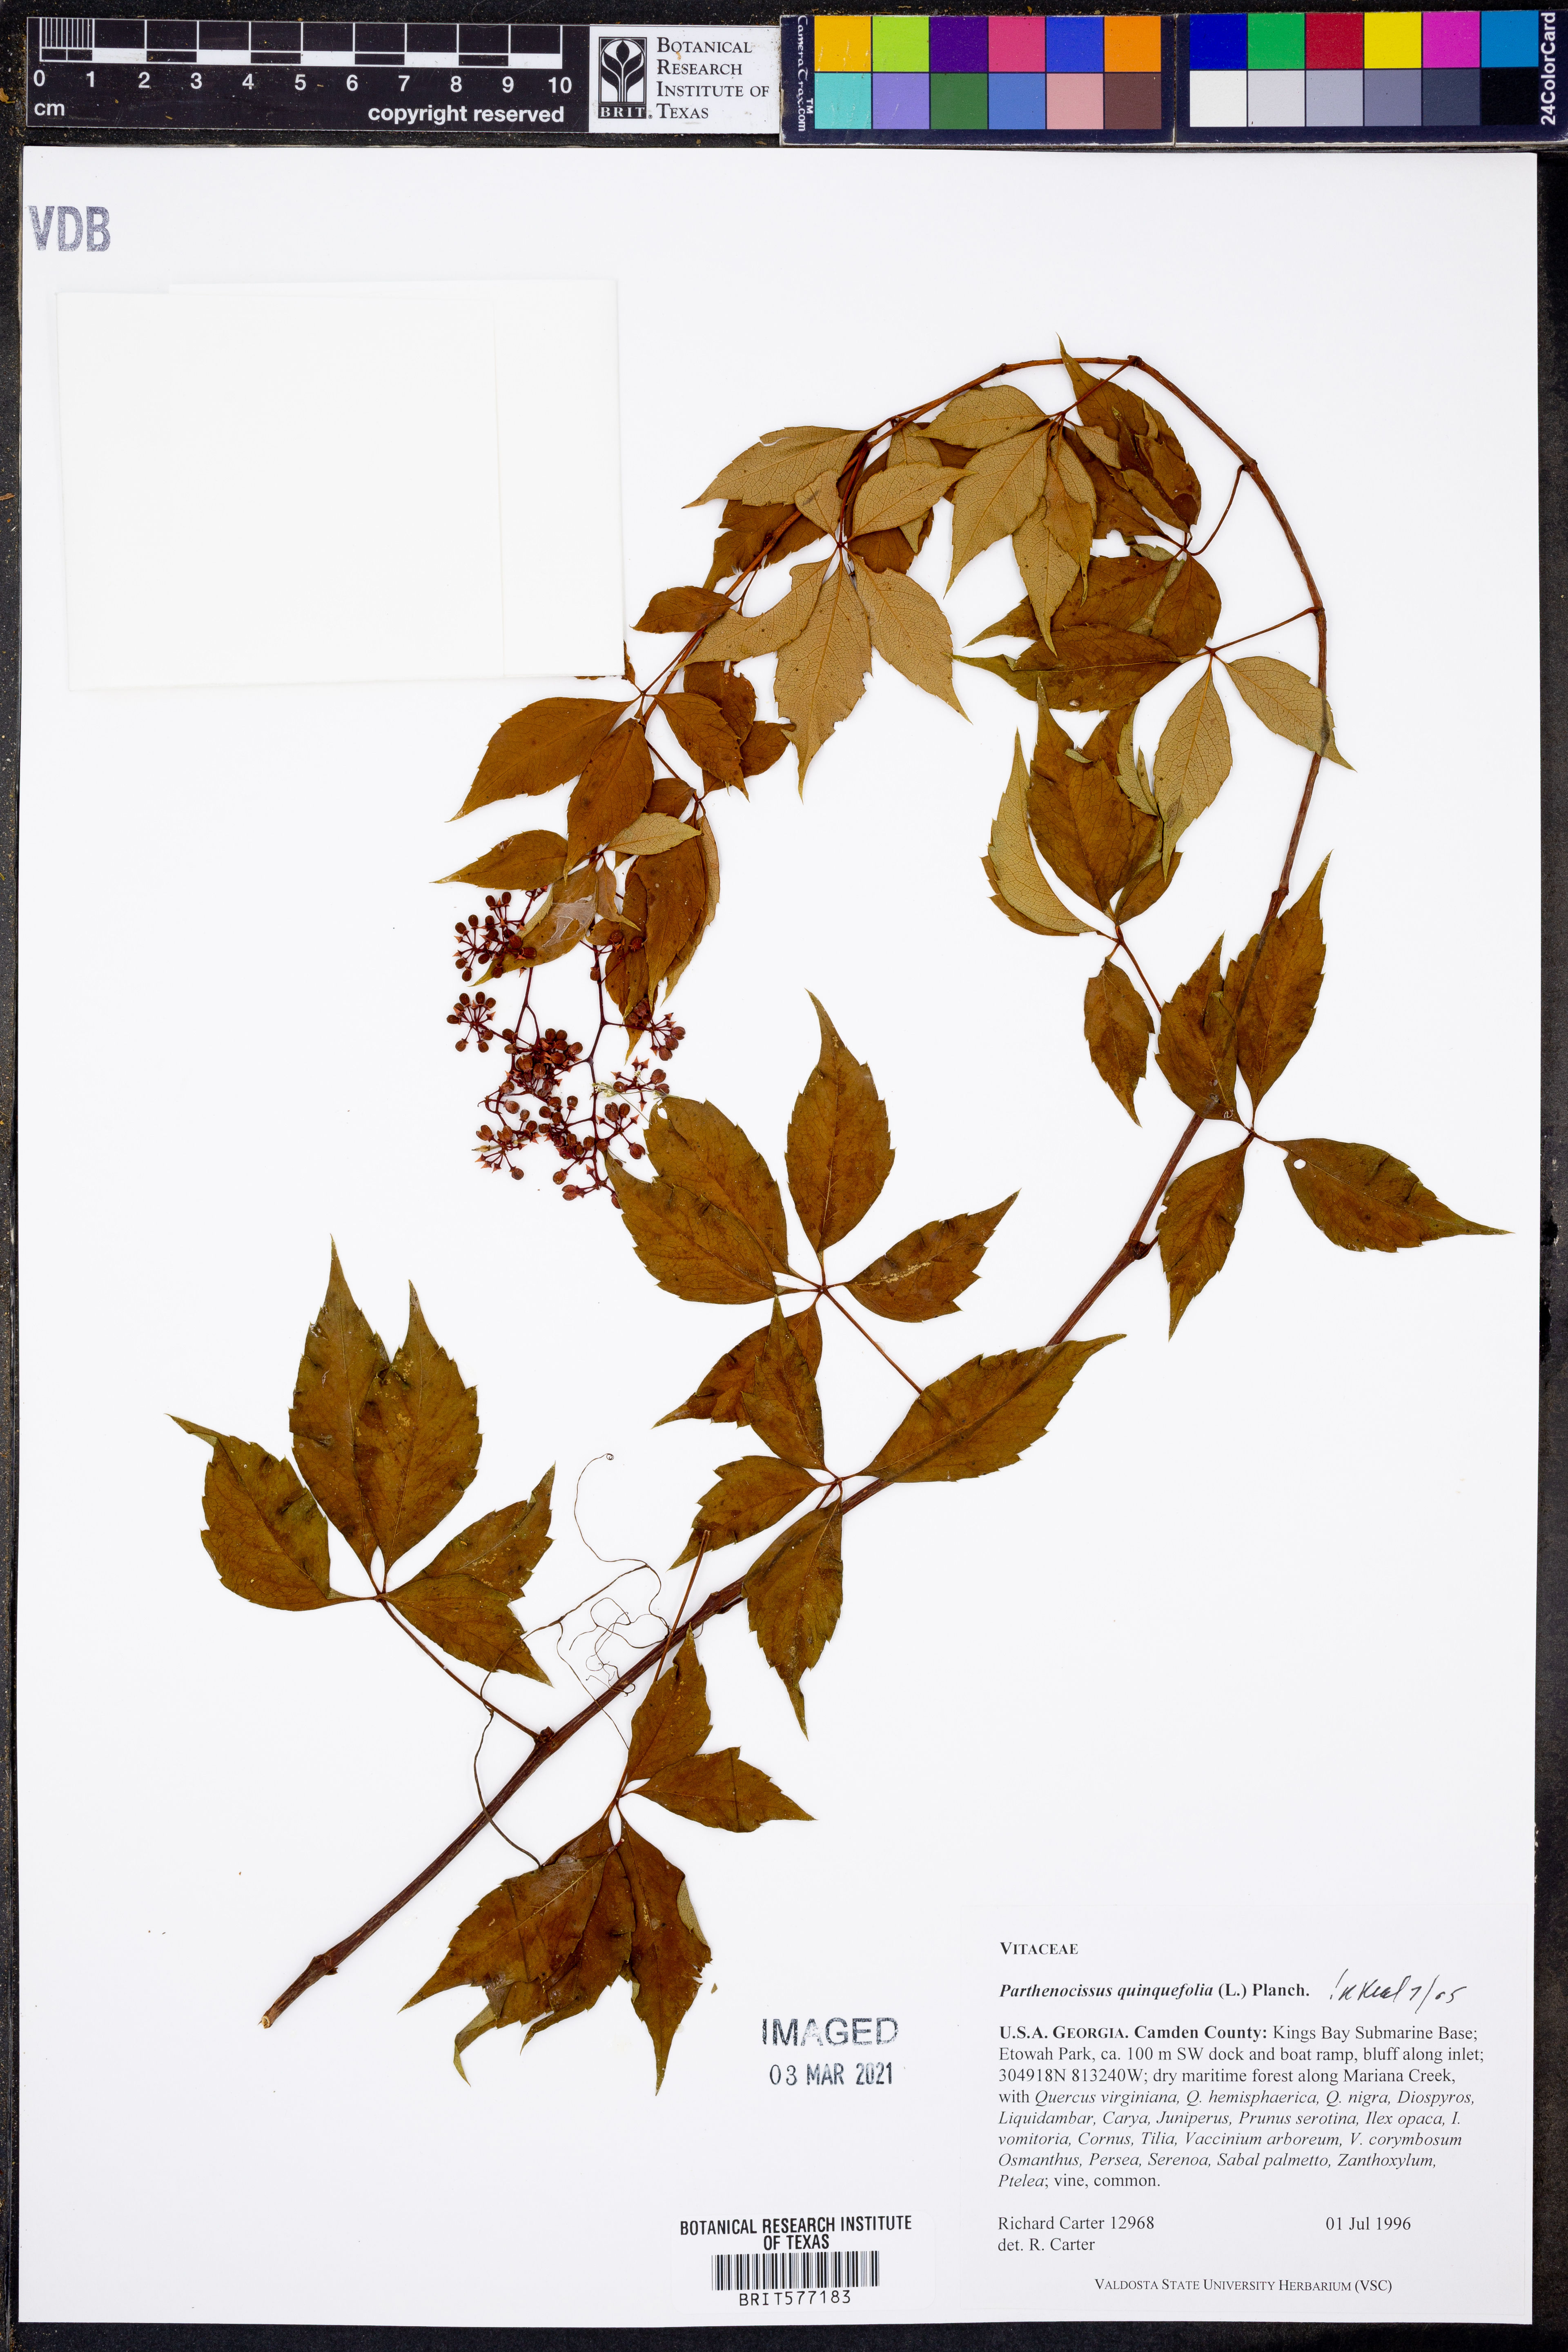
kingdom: Plantae
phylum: Tracheophyta
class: Magnoliopsida
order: Vitales
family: Vitaceae
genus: Parthenocissus
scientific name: Parthenocissus quinquefolia
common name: Virginia-creeper
